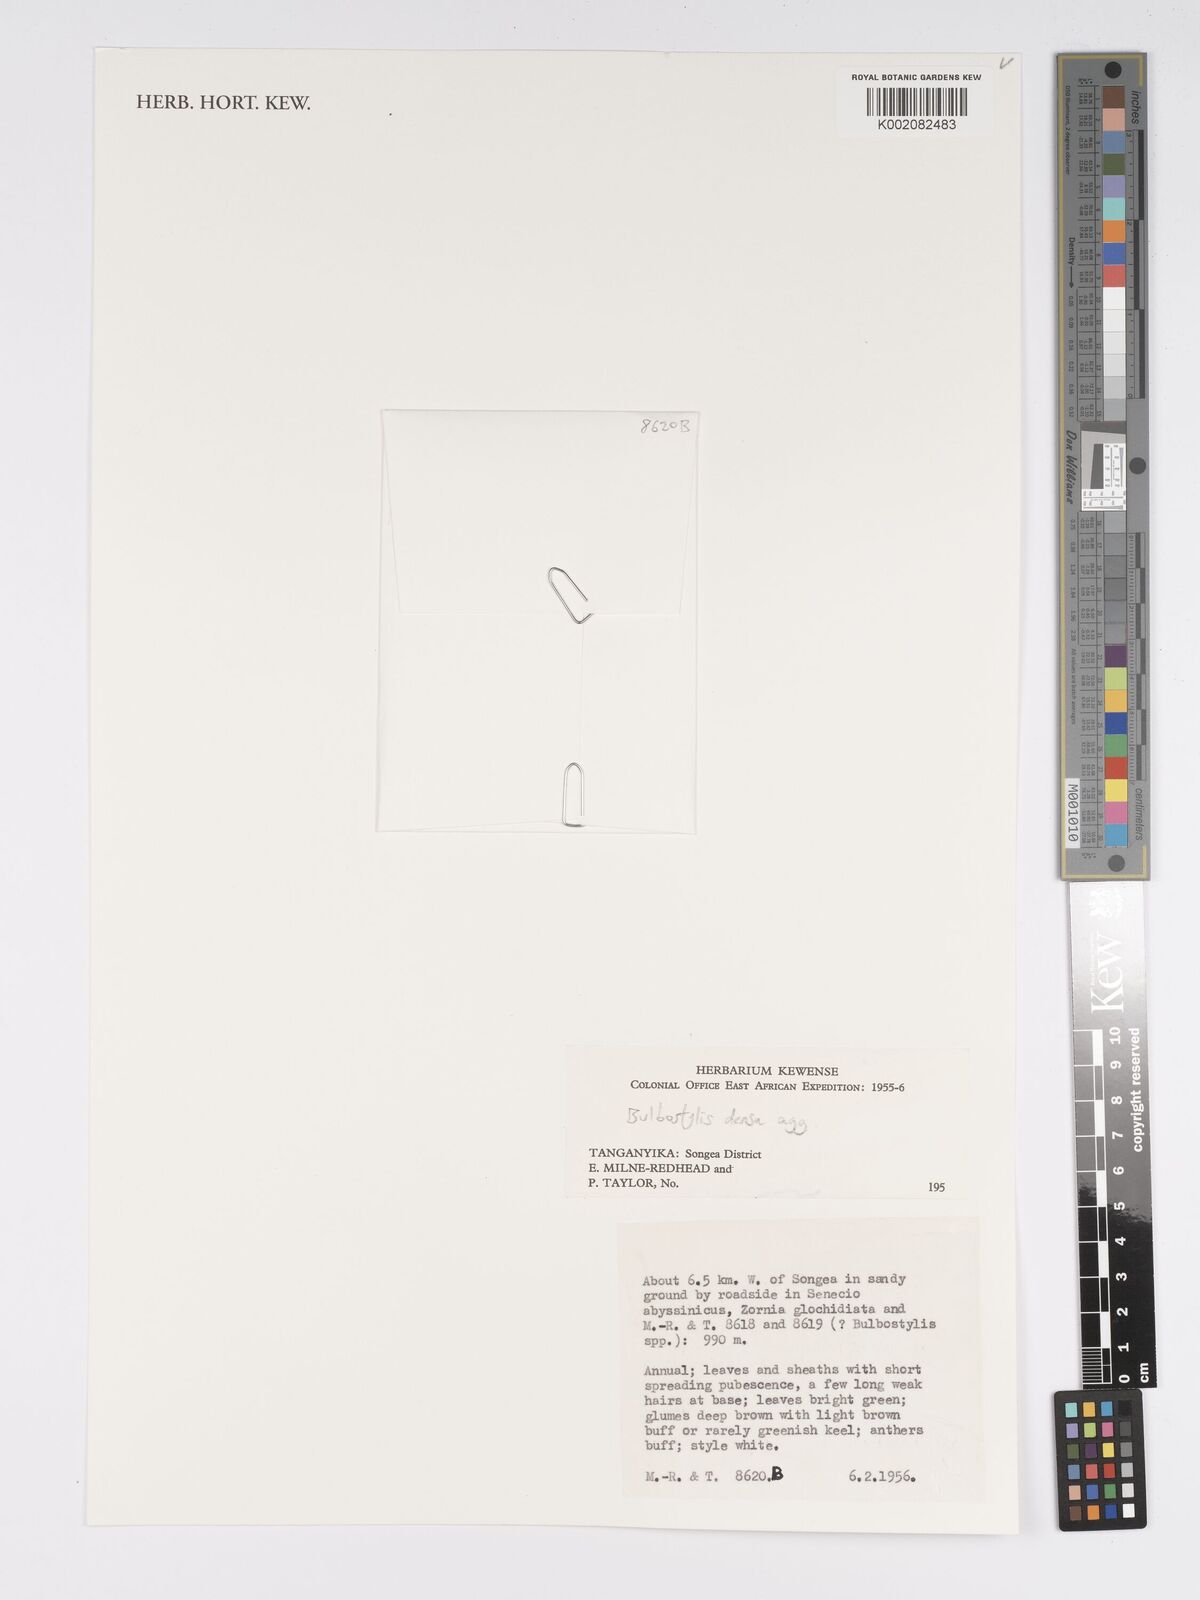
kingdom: Plantae
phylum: Tracheophyta
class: Liliopsida
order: Poales
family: Cyperaceae
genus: Bulbostylis
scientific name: Bulbostylis densa
